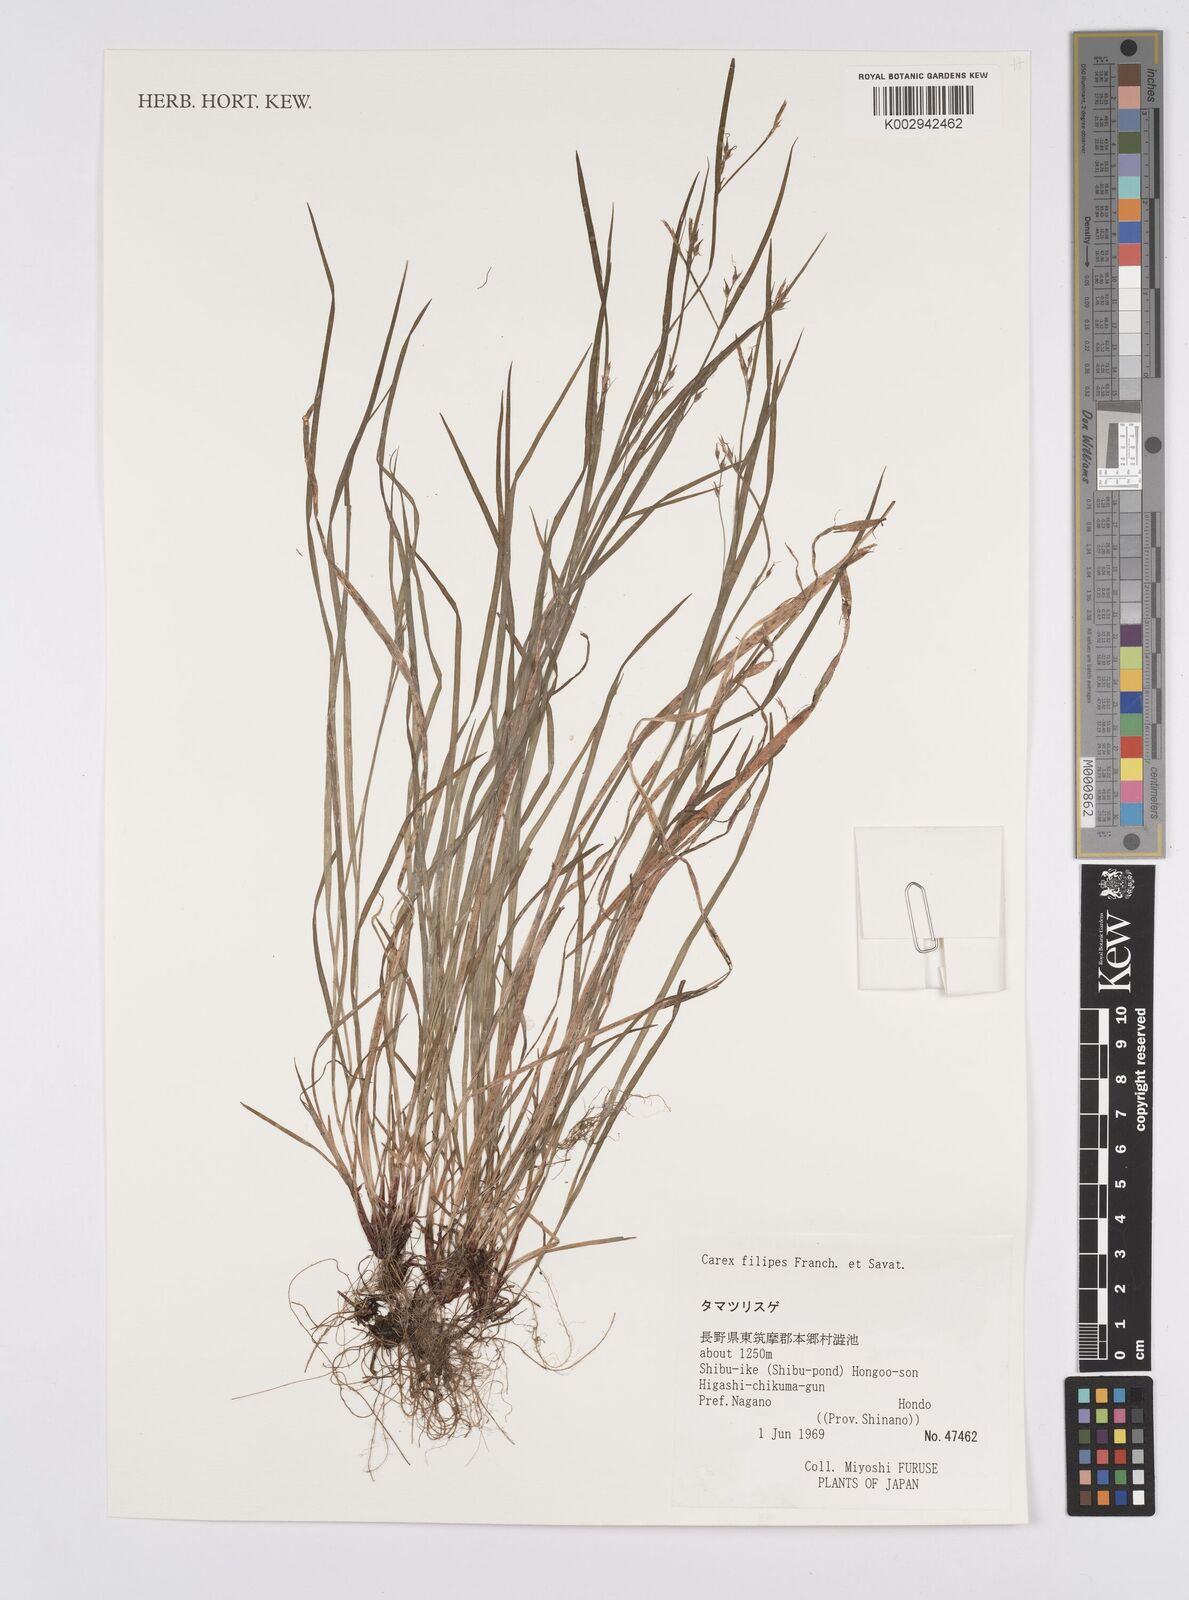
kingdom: Plantae
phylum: Tracheophyta
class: Liliopsida
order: Poales
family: Cyperaceae
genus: Carex
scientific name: Carex filipes
